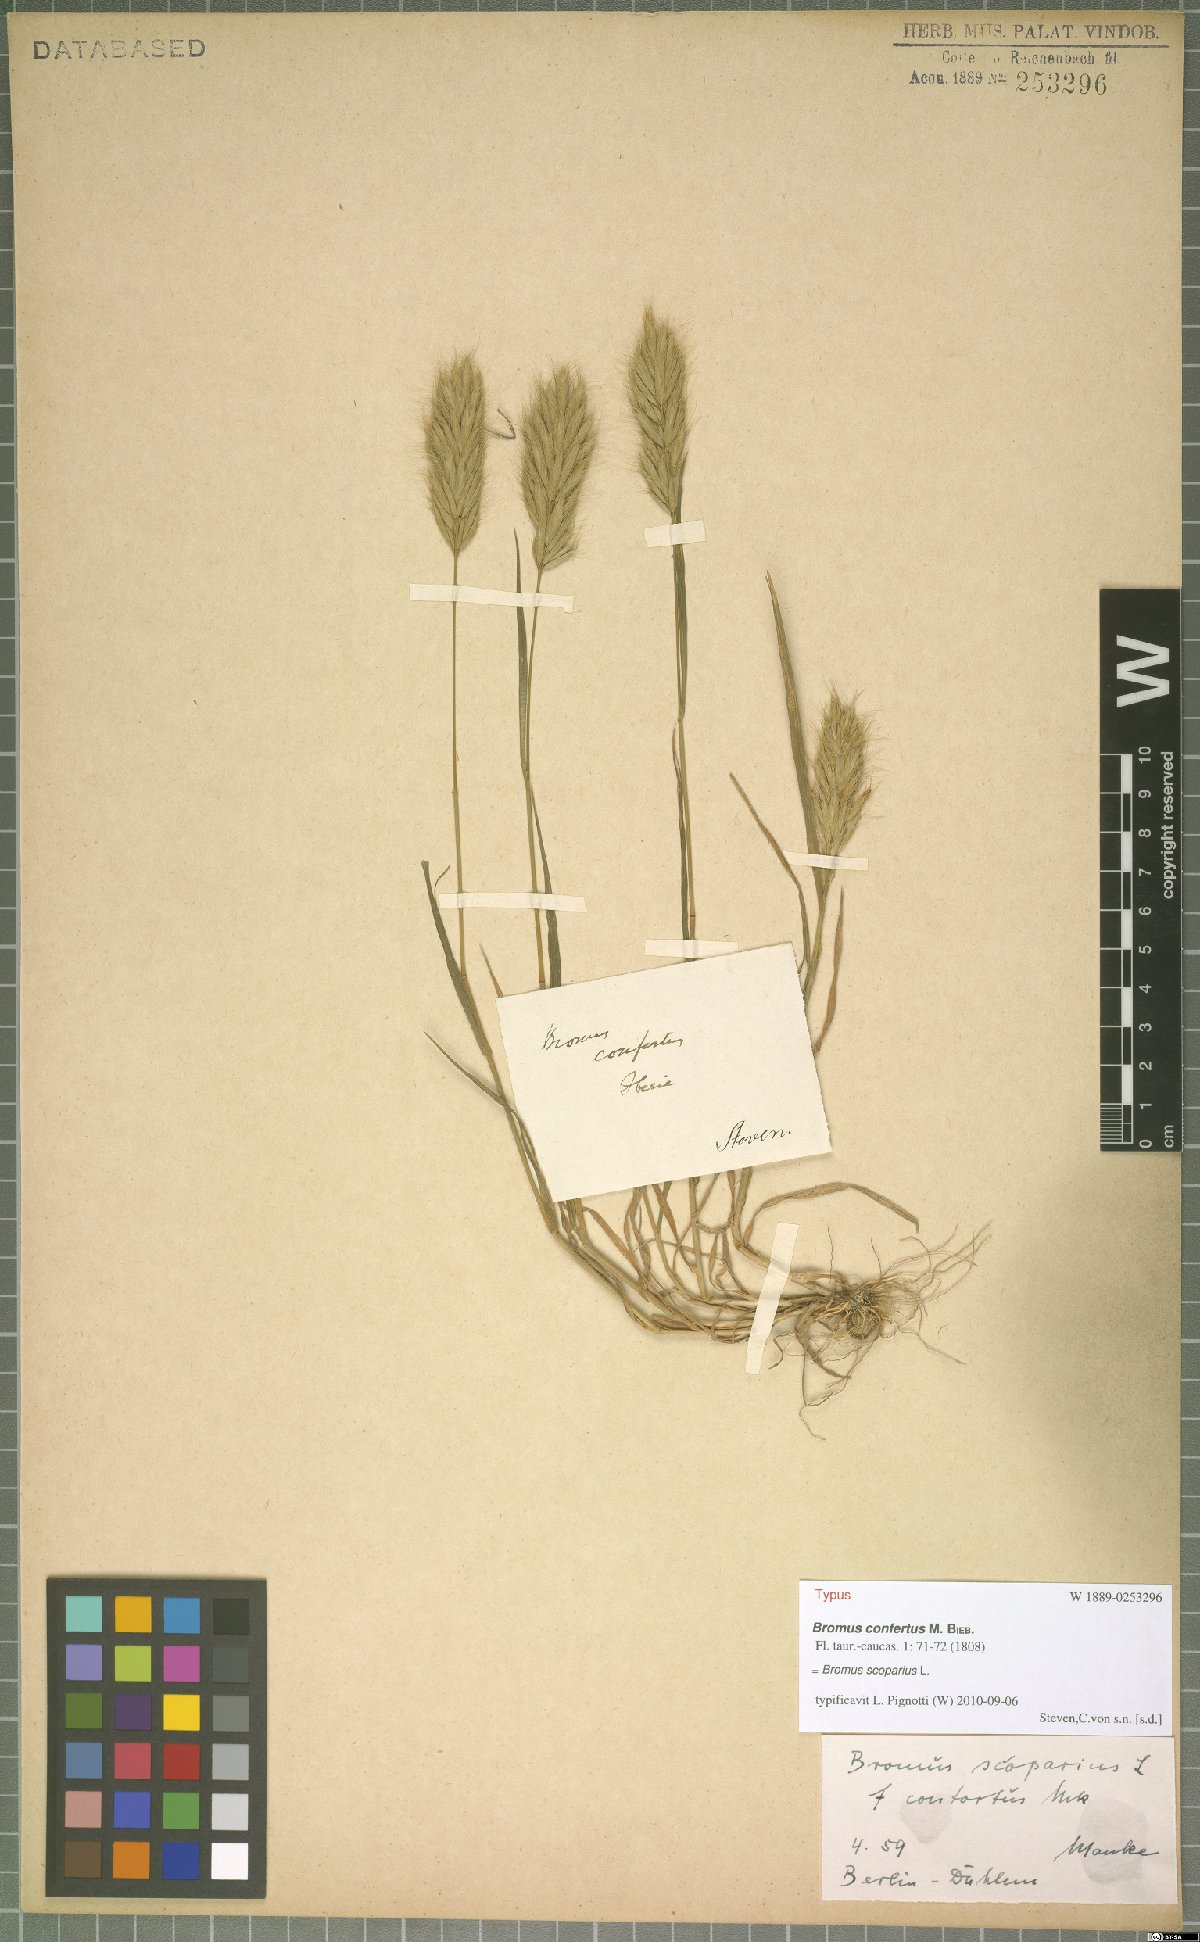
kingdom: Plantae
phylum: Tracheophyta
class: Liliopsida
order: Poales
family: Poaceae
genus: Bromus
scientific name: Bromus scoparius
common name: Broom brome
